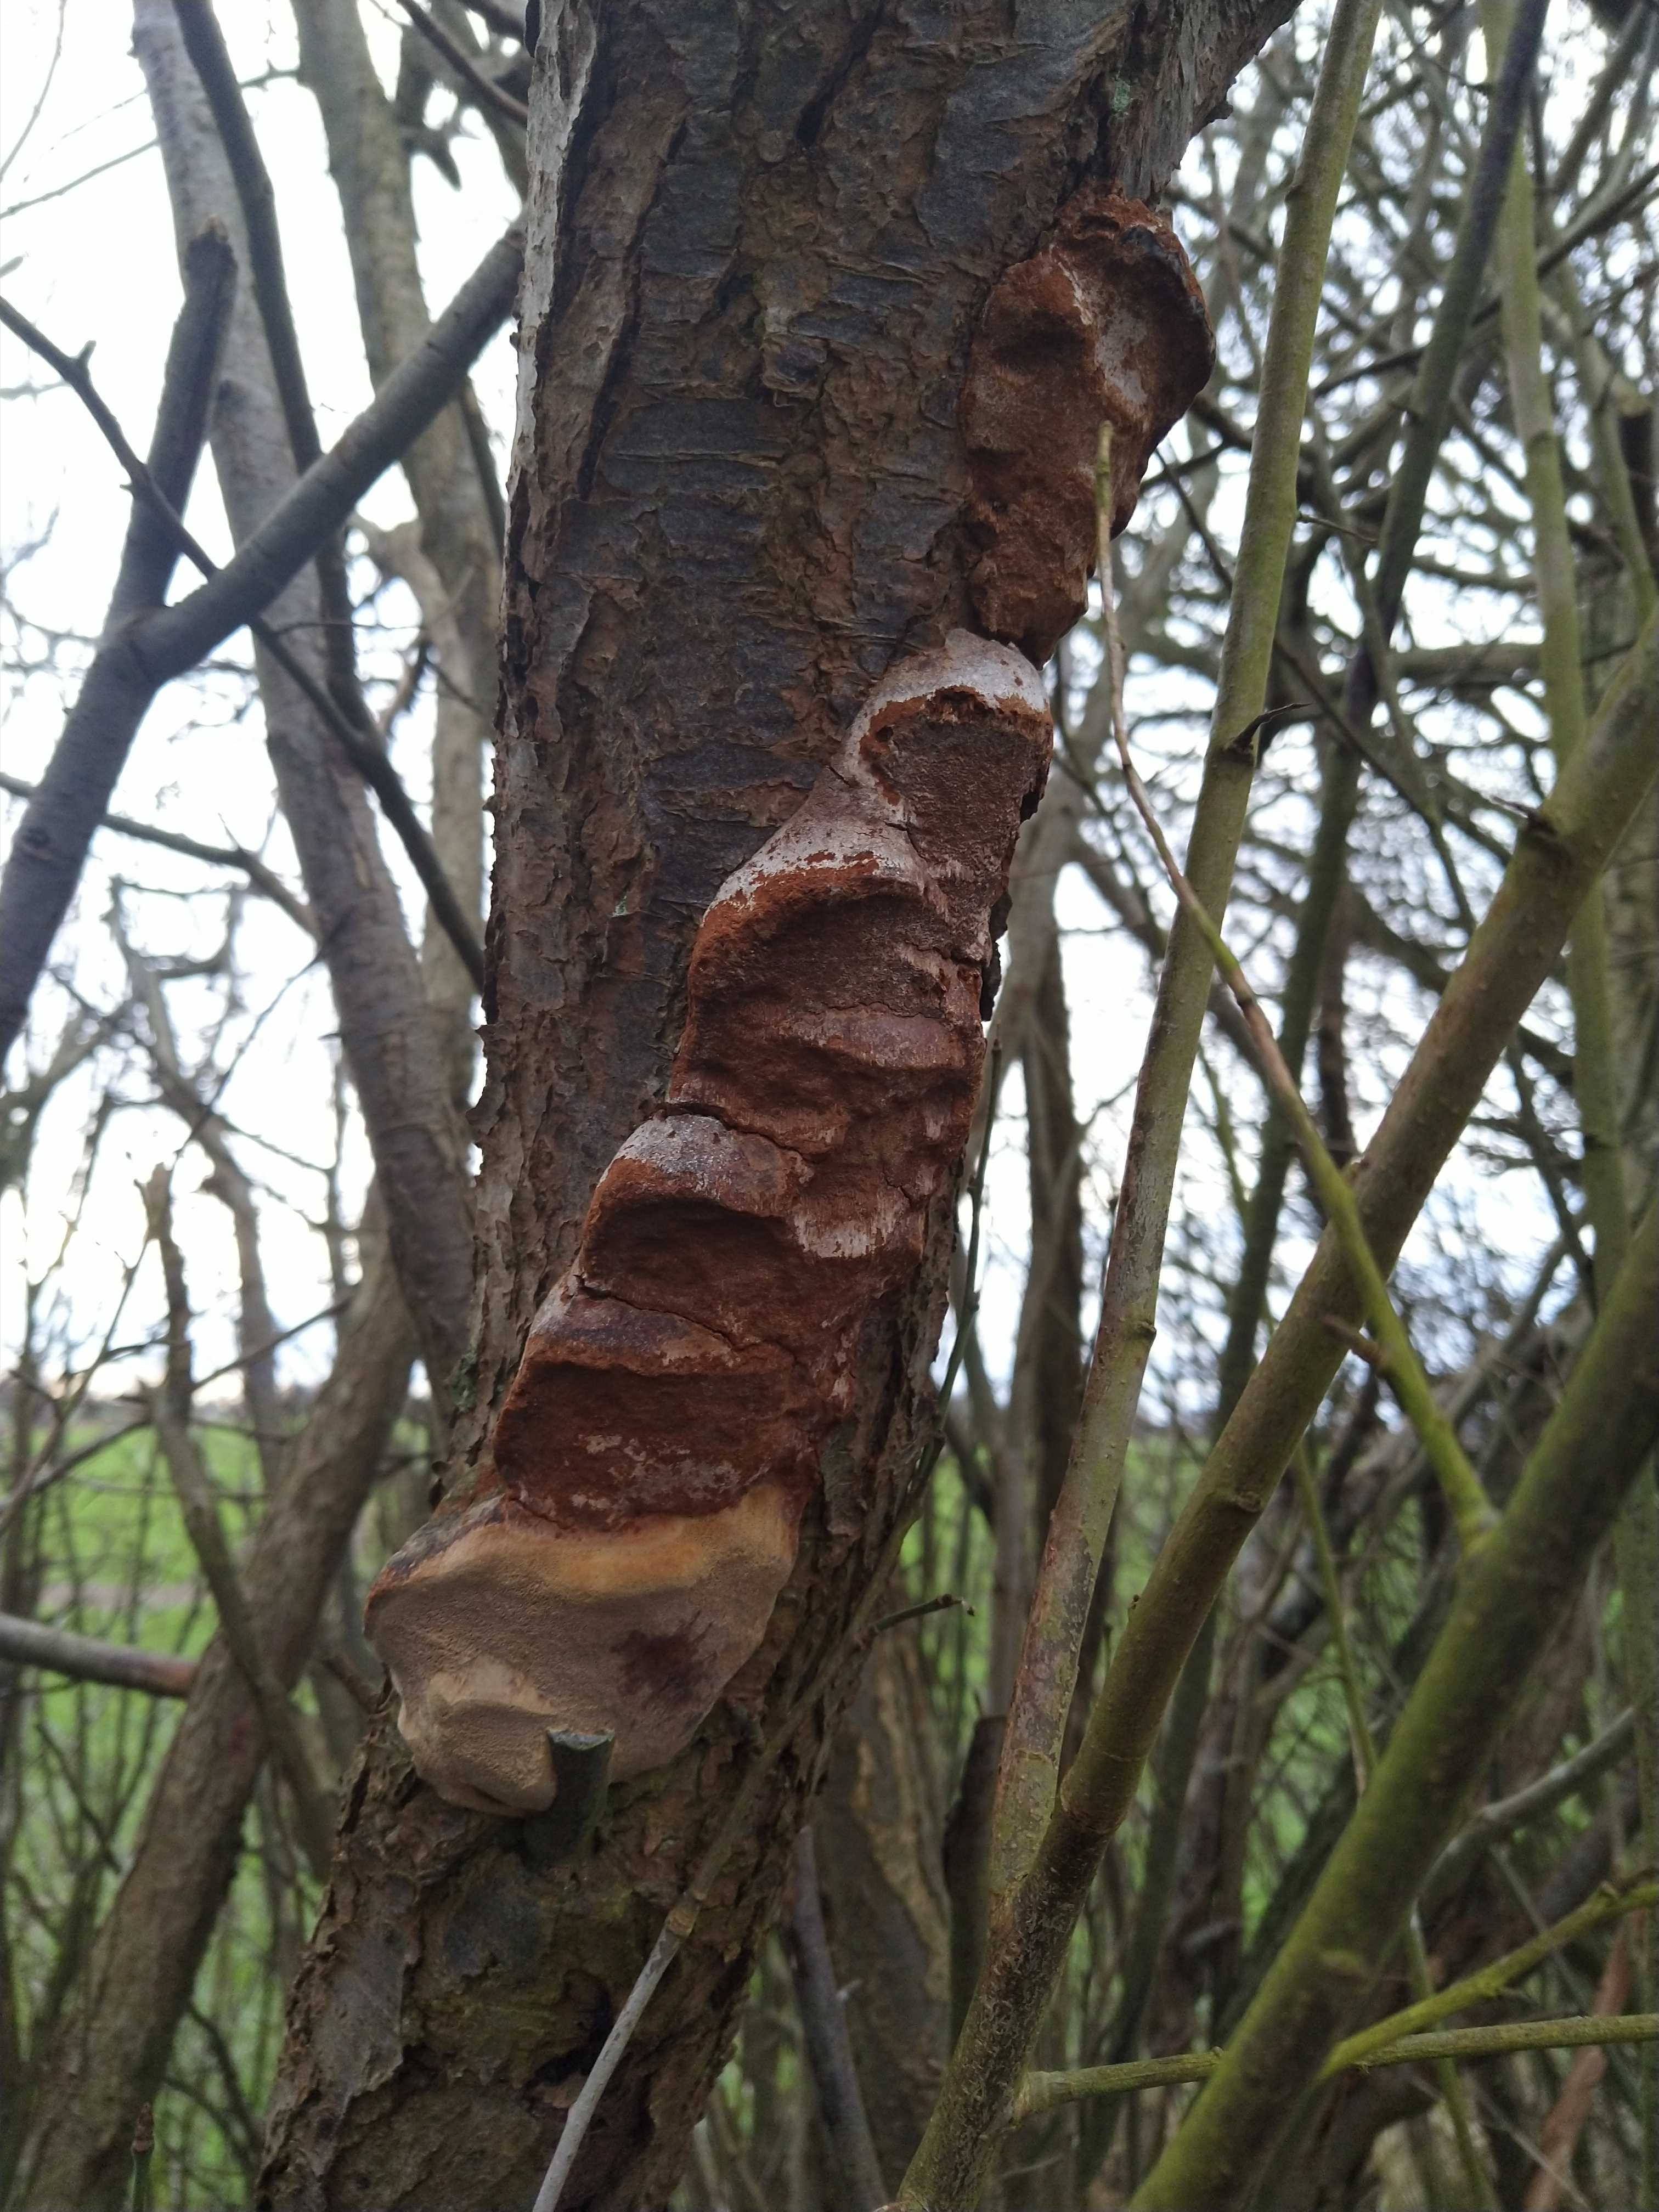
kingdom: Fungi
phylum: Basidiomycota
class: Agaricomycetes
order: Hymenochaetales
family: Hymenochaetaceae
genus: Phellinus
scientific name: Phellinus pomaceus
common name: blomme-ildporesvamp
